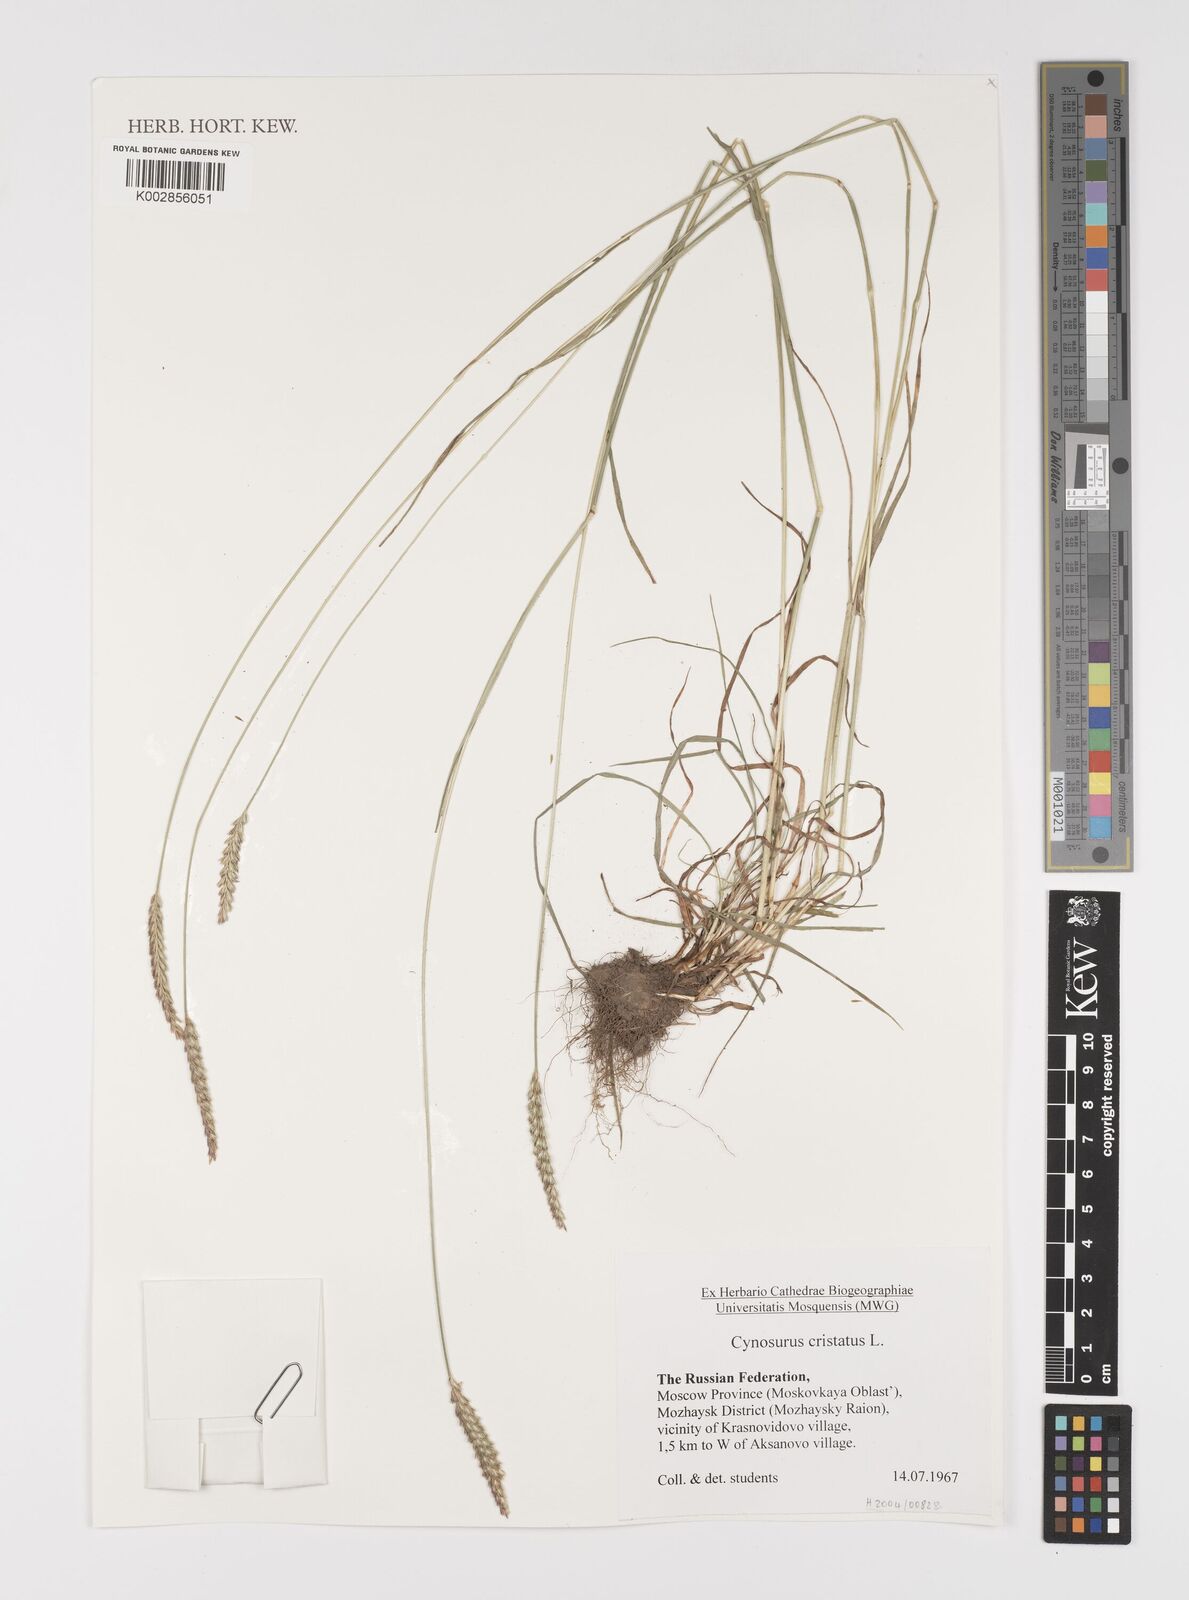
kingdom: Plantae
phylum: Tracheophyta
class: Liliopsida
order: Poales
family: Poaceae
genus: Cynosurus
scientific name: Cynosurus cristatus
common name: Crested dog's-tail
